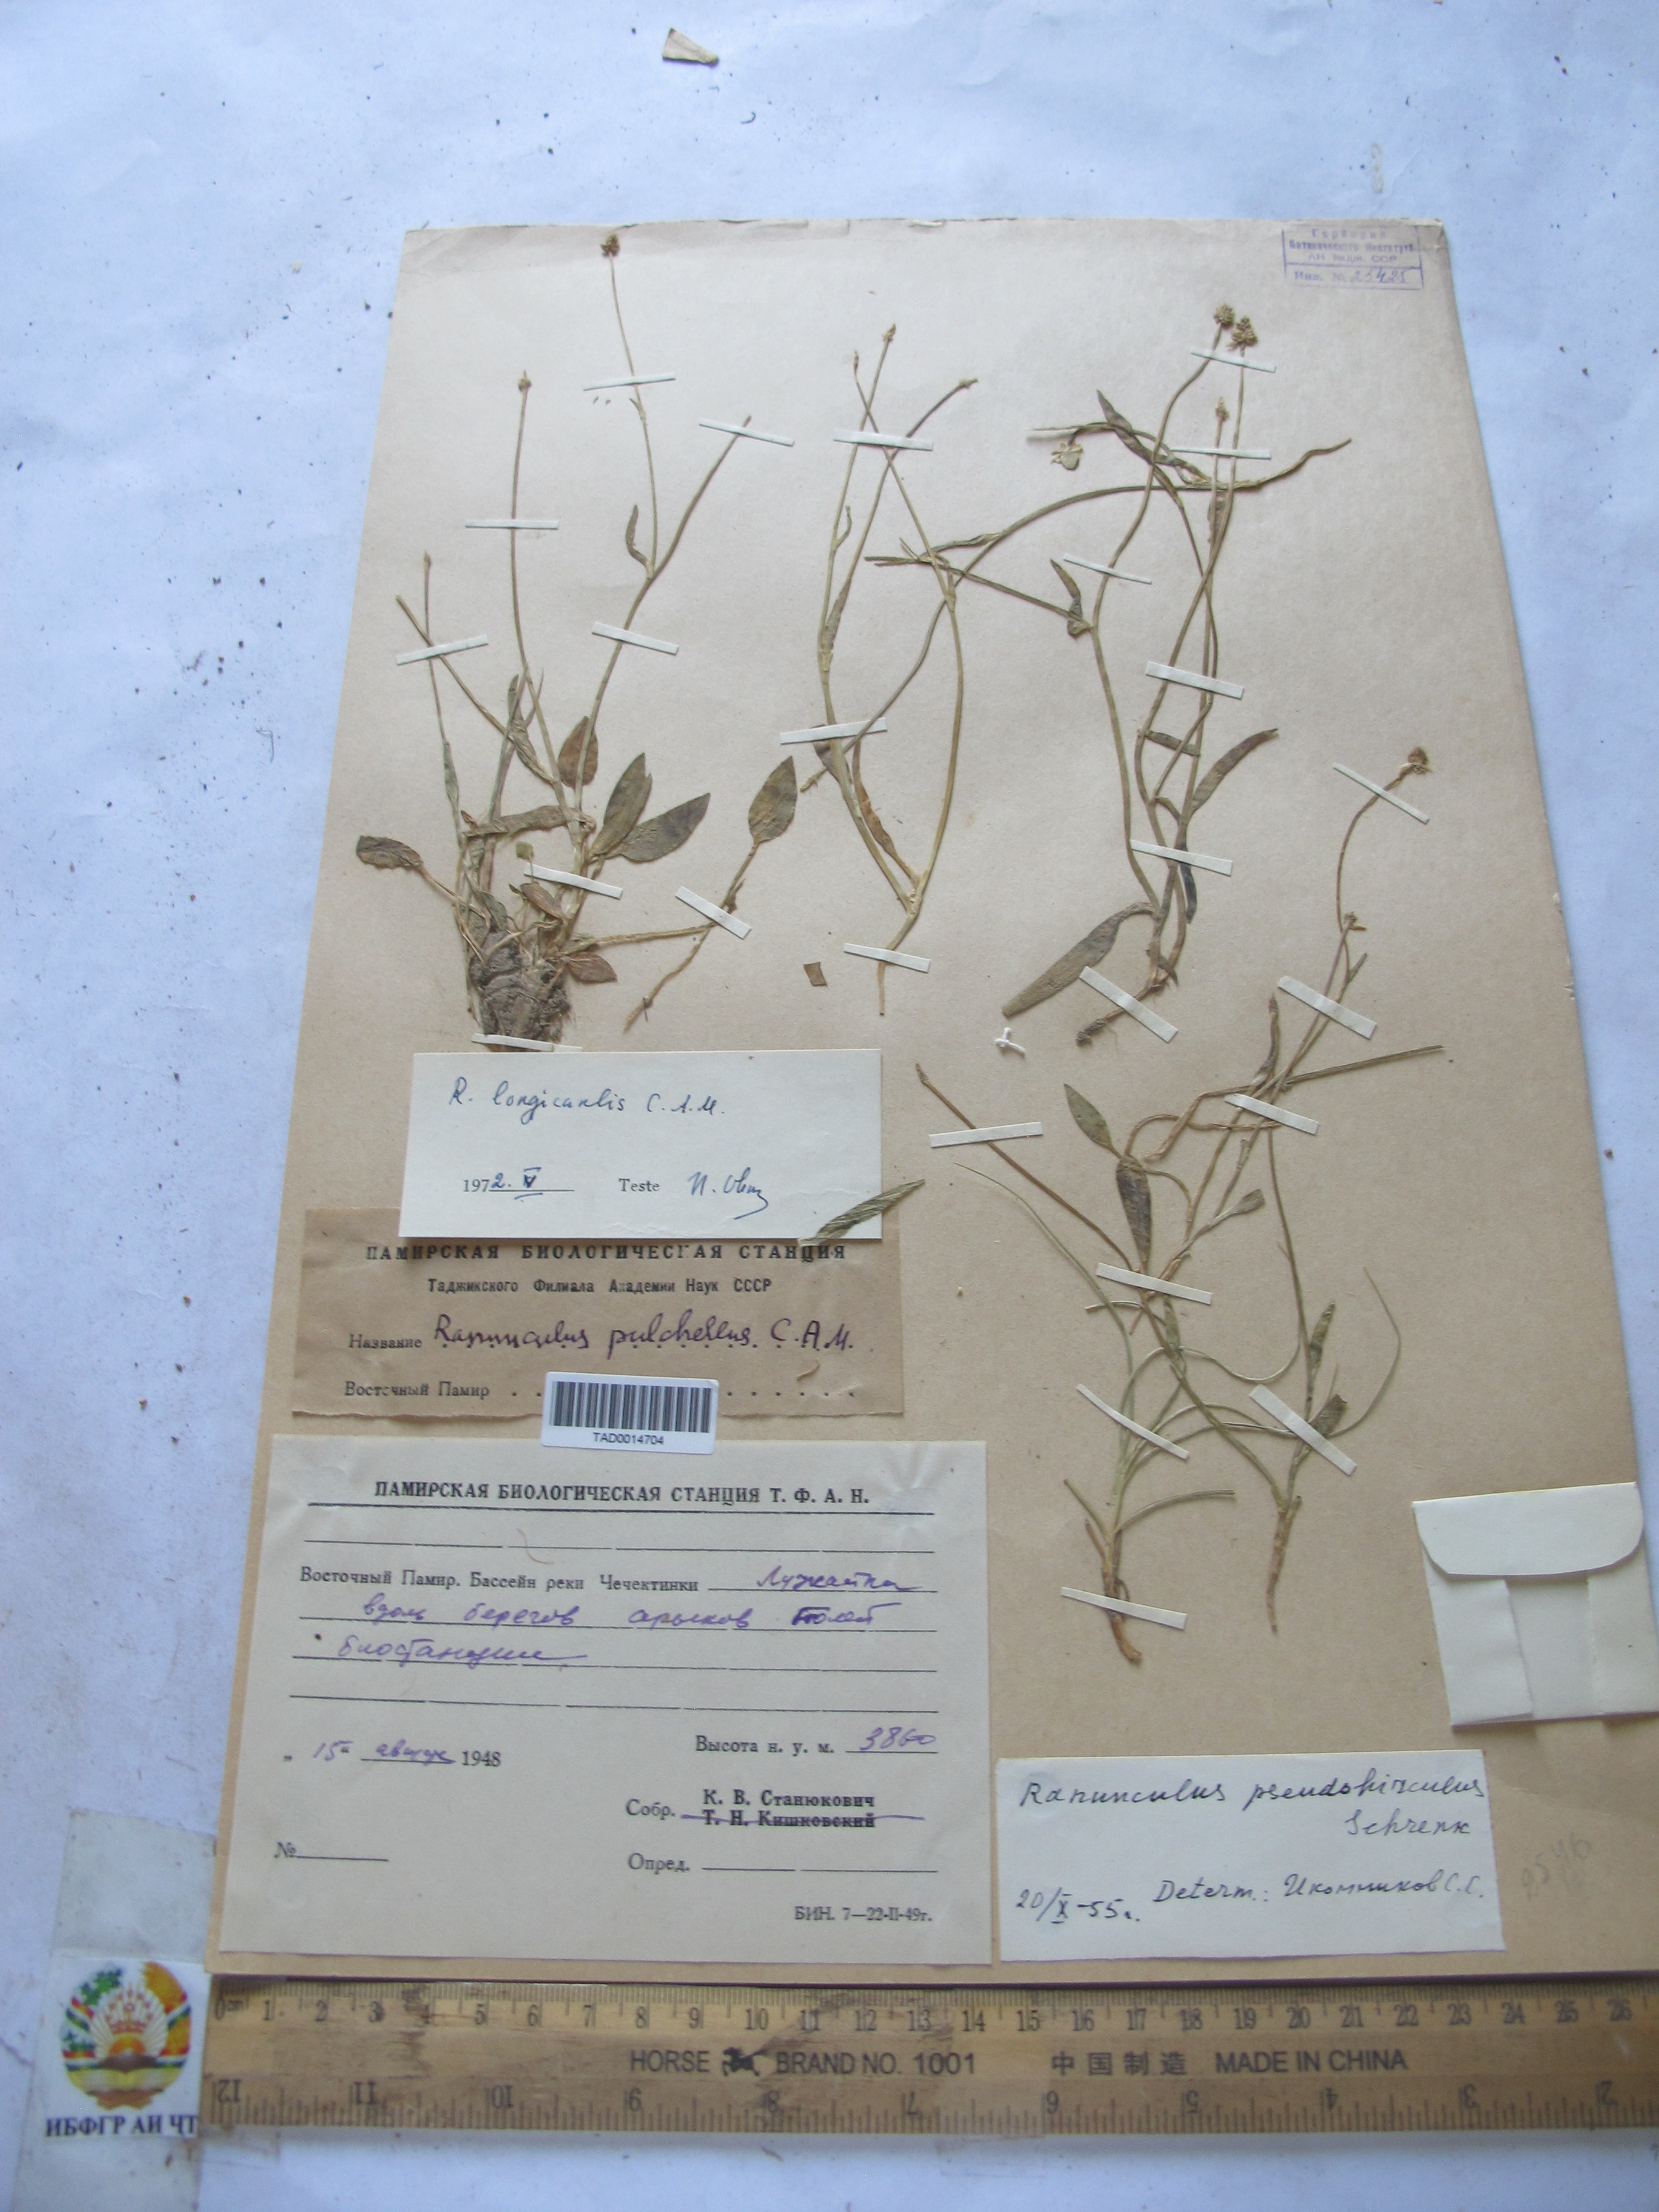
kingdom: Plantae
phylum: Tracheophyta
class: Magnoliopsida
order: Ranunculales
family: Ranunculaceae
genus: Ranunculus
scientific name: Ranunculus pulchellus
